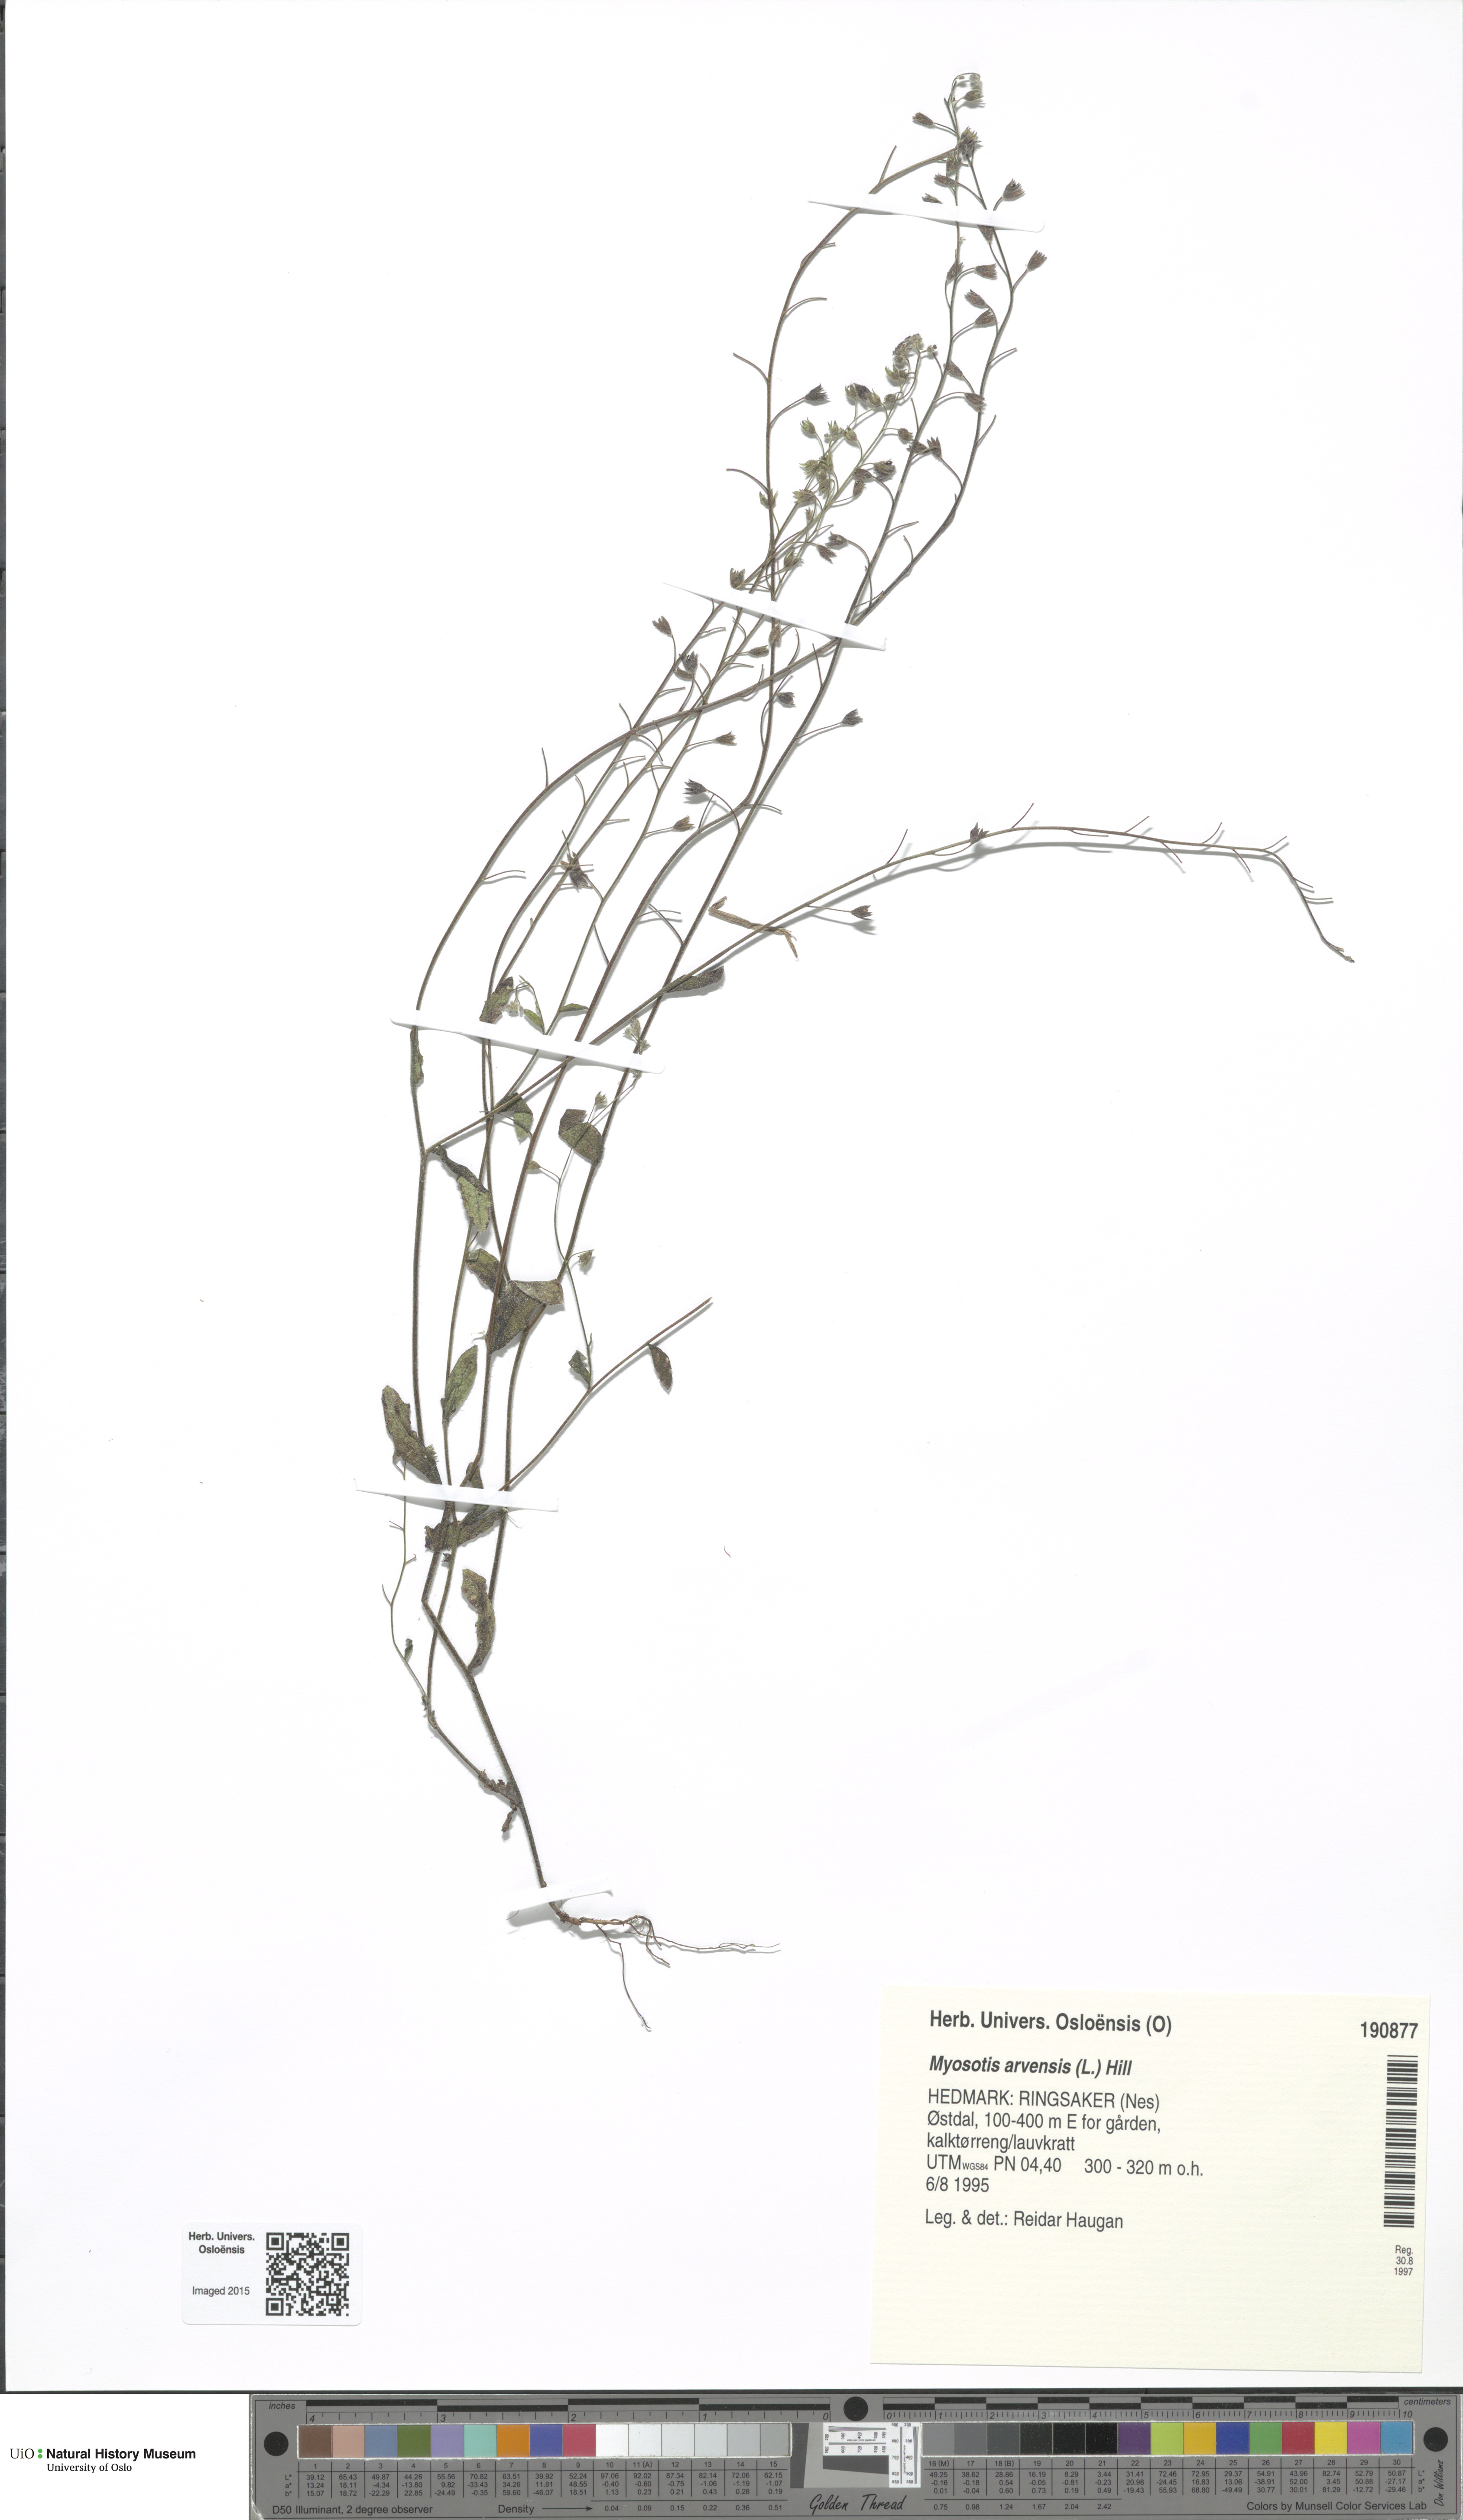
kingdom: Plantae
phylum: Tracheophyta
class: Magnoliopsida
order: Boraginales
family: Boraginaceae
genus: Myosotis
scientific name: Myosotis arvensis
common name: Field forget-me-not
